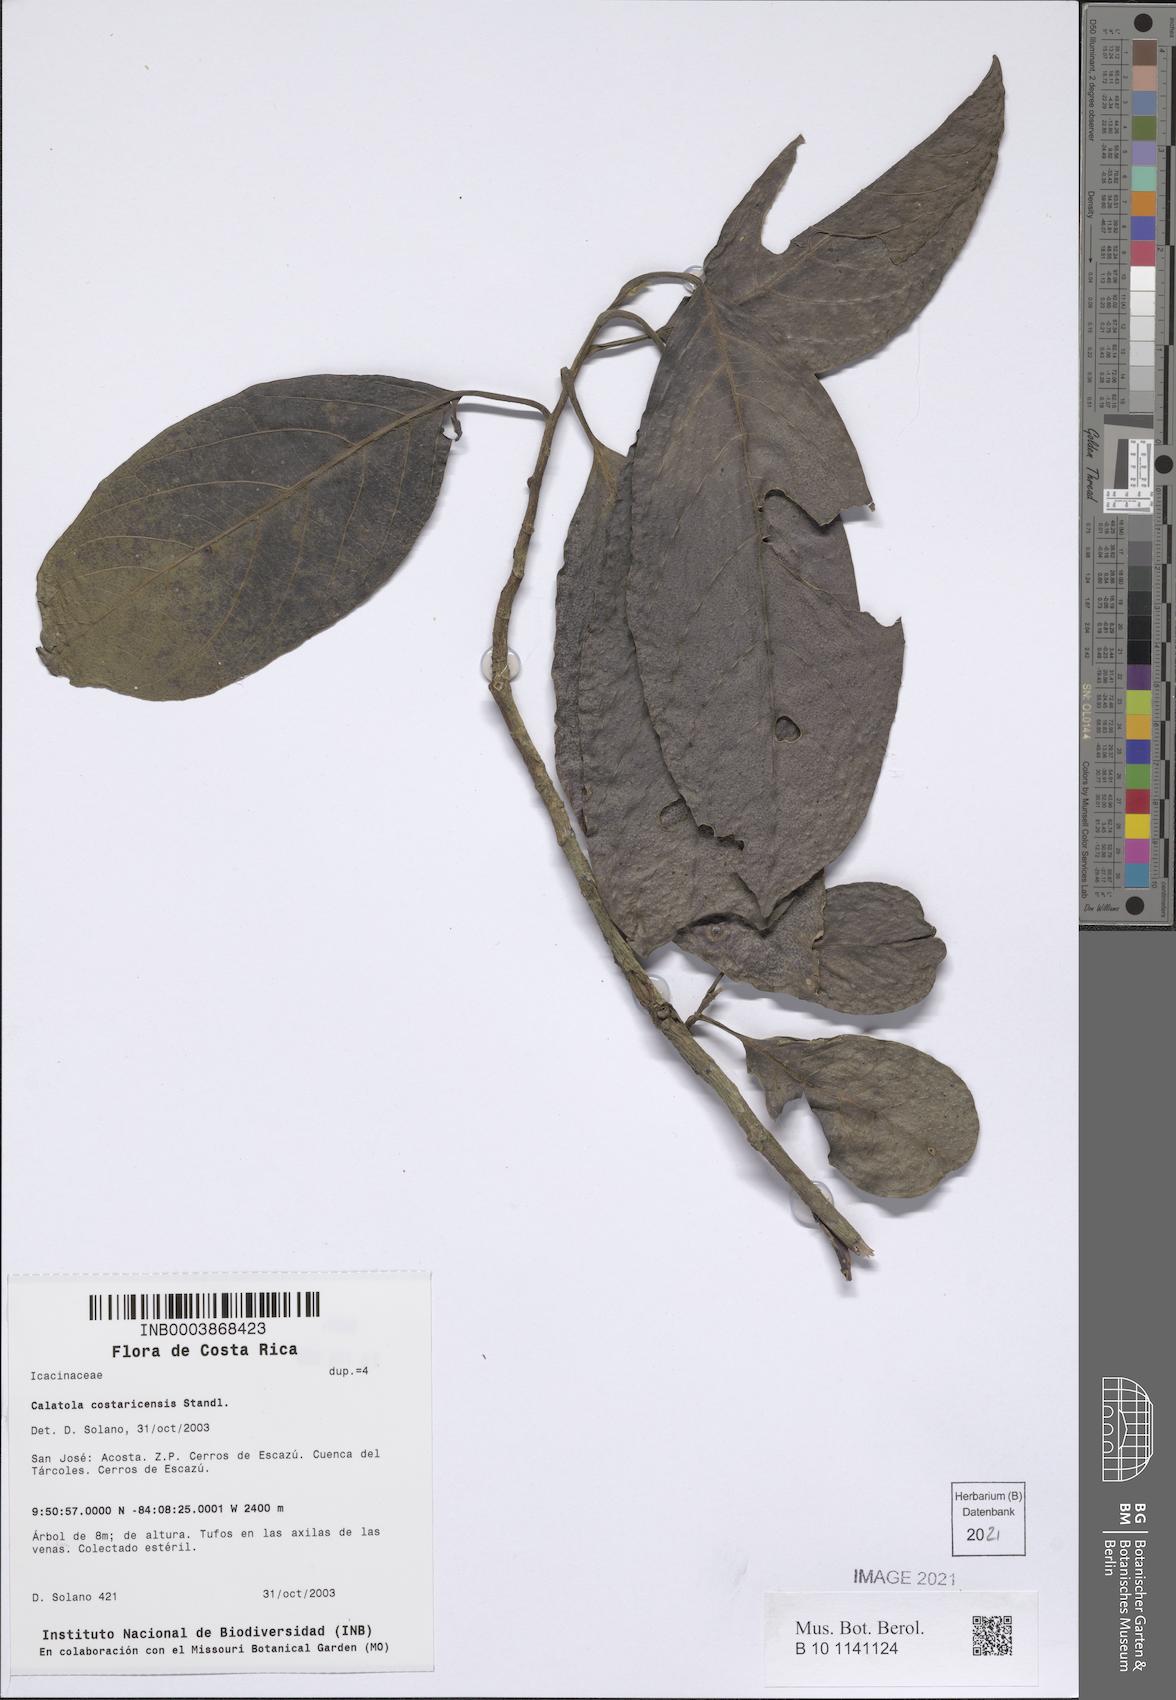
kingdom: Plantae
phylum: Tracheophyta
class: Magnoliopsida
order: Metteniusales
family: Metteniusaceae
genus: Calatola
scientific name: Calatola costaricensis
